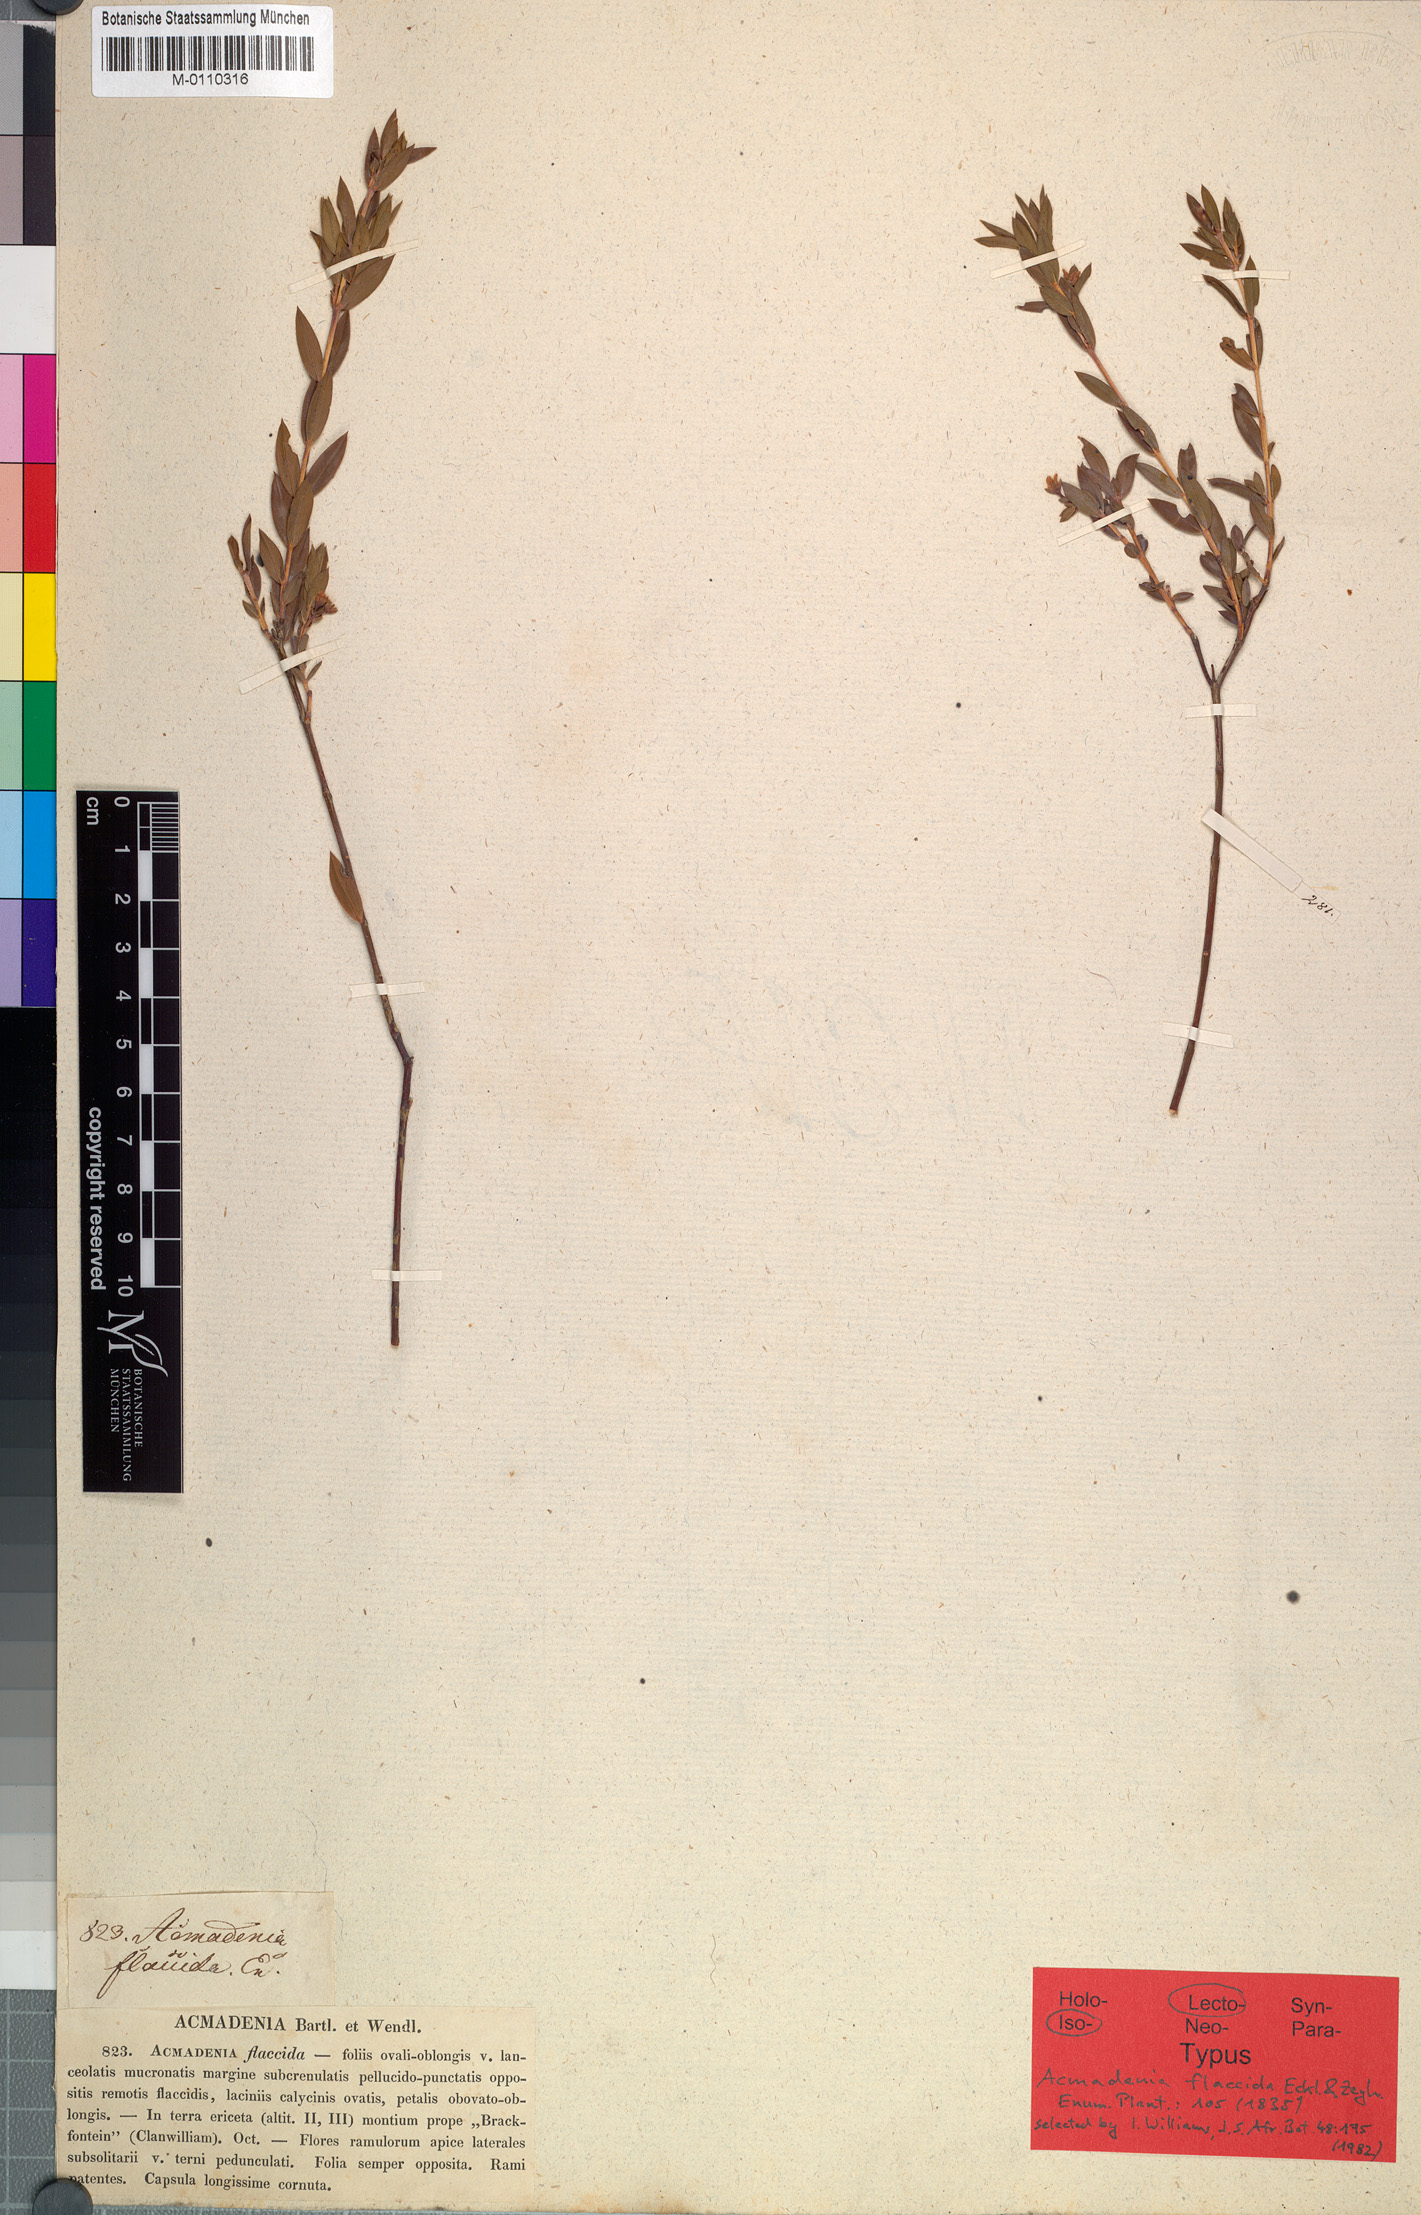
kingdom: Plantae
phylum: Tracheophyta
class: Magnoliopsida
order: Sapindales
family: Rutaceae
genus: Acmadenia
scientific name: Acmadenia flaccida
